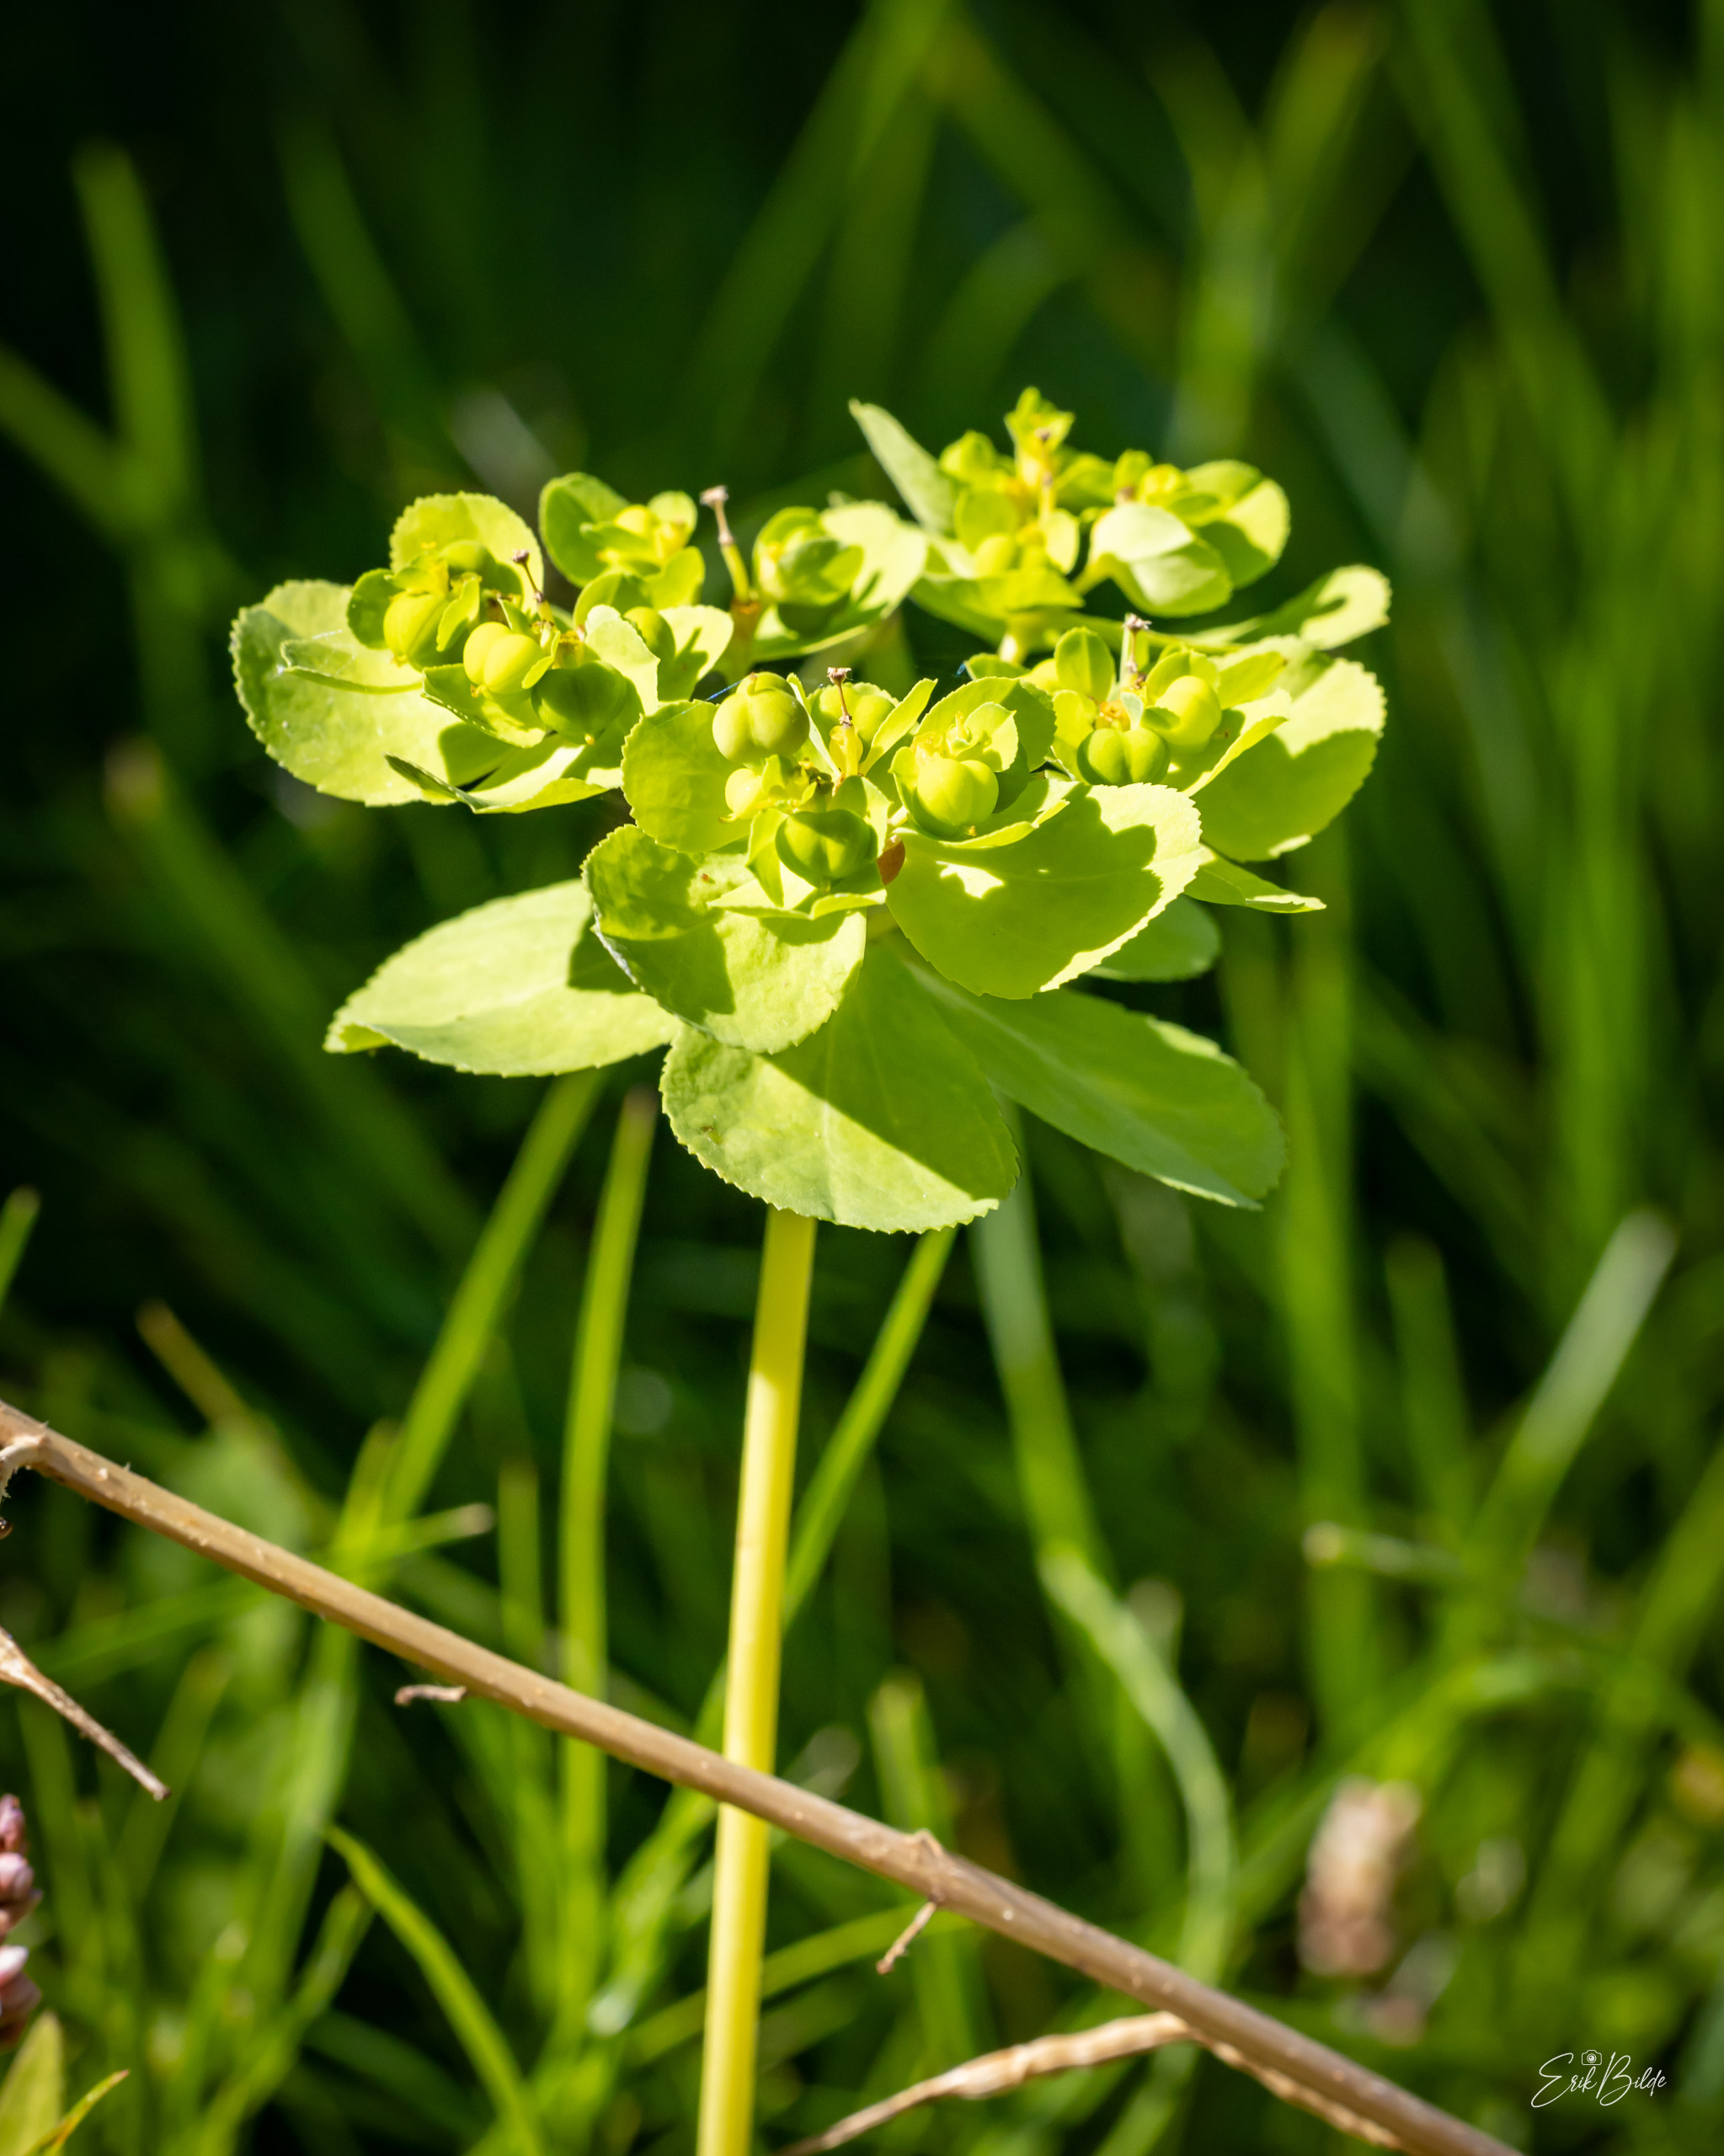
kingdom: Plantae
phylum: Tracheophyta
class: Magnoliopsida
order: Malpighiales
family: Euphorbiaceae
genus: Euphorbia
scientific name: Euphorbia helioscopia
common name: Skærm-vortemælk
